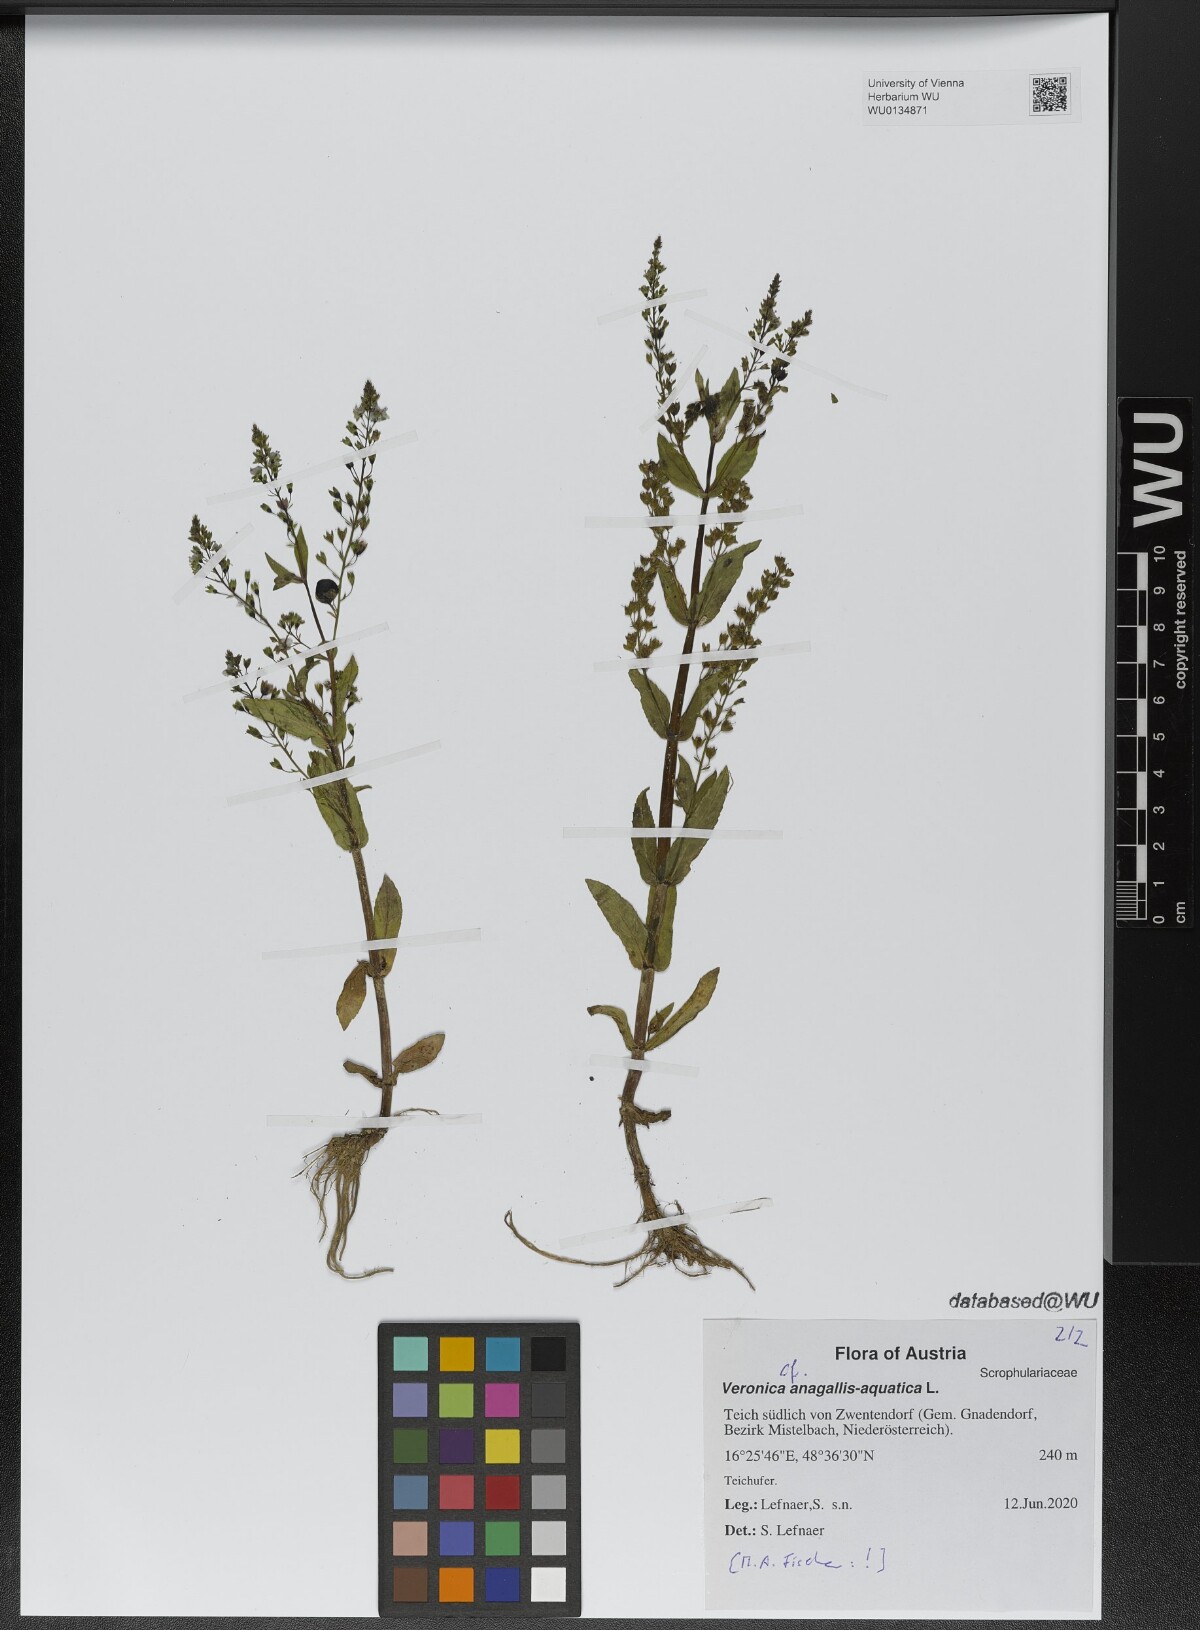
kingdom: Plantae
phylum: Tracheophyta
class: Magnoliopsida
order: Lamiales
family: Plantaginaceae
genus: Veronica
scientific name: Veronica anagallis-aquatica
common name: Water speedwell
